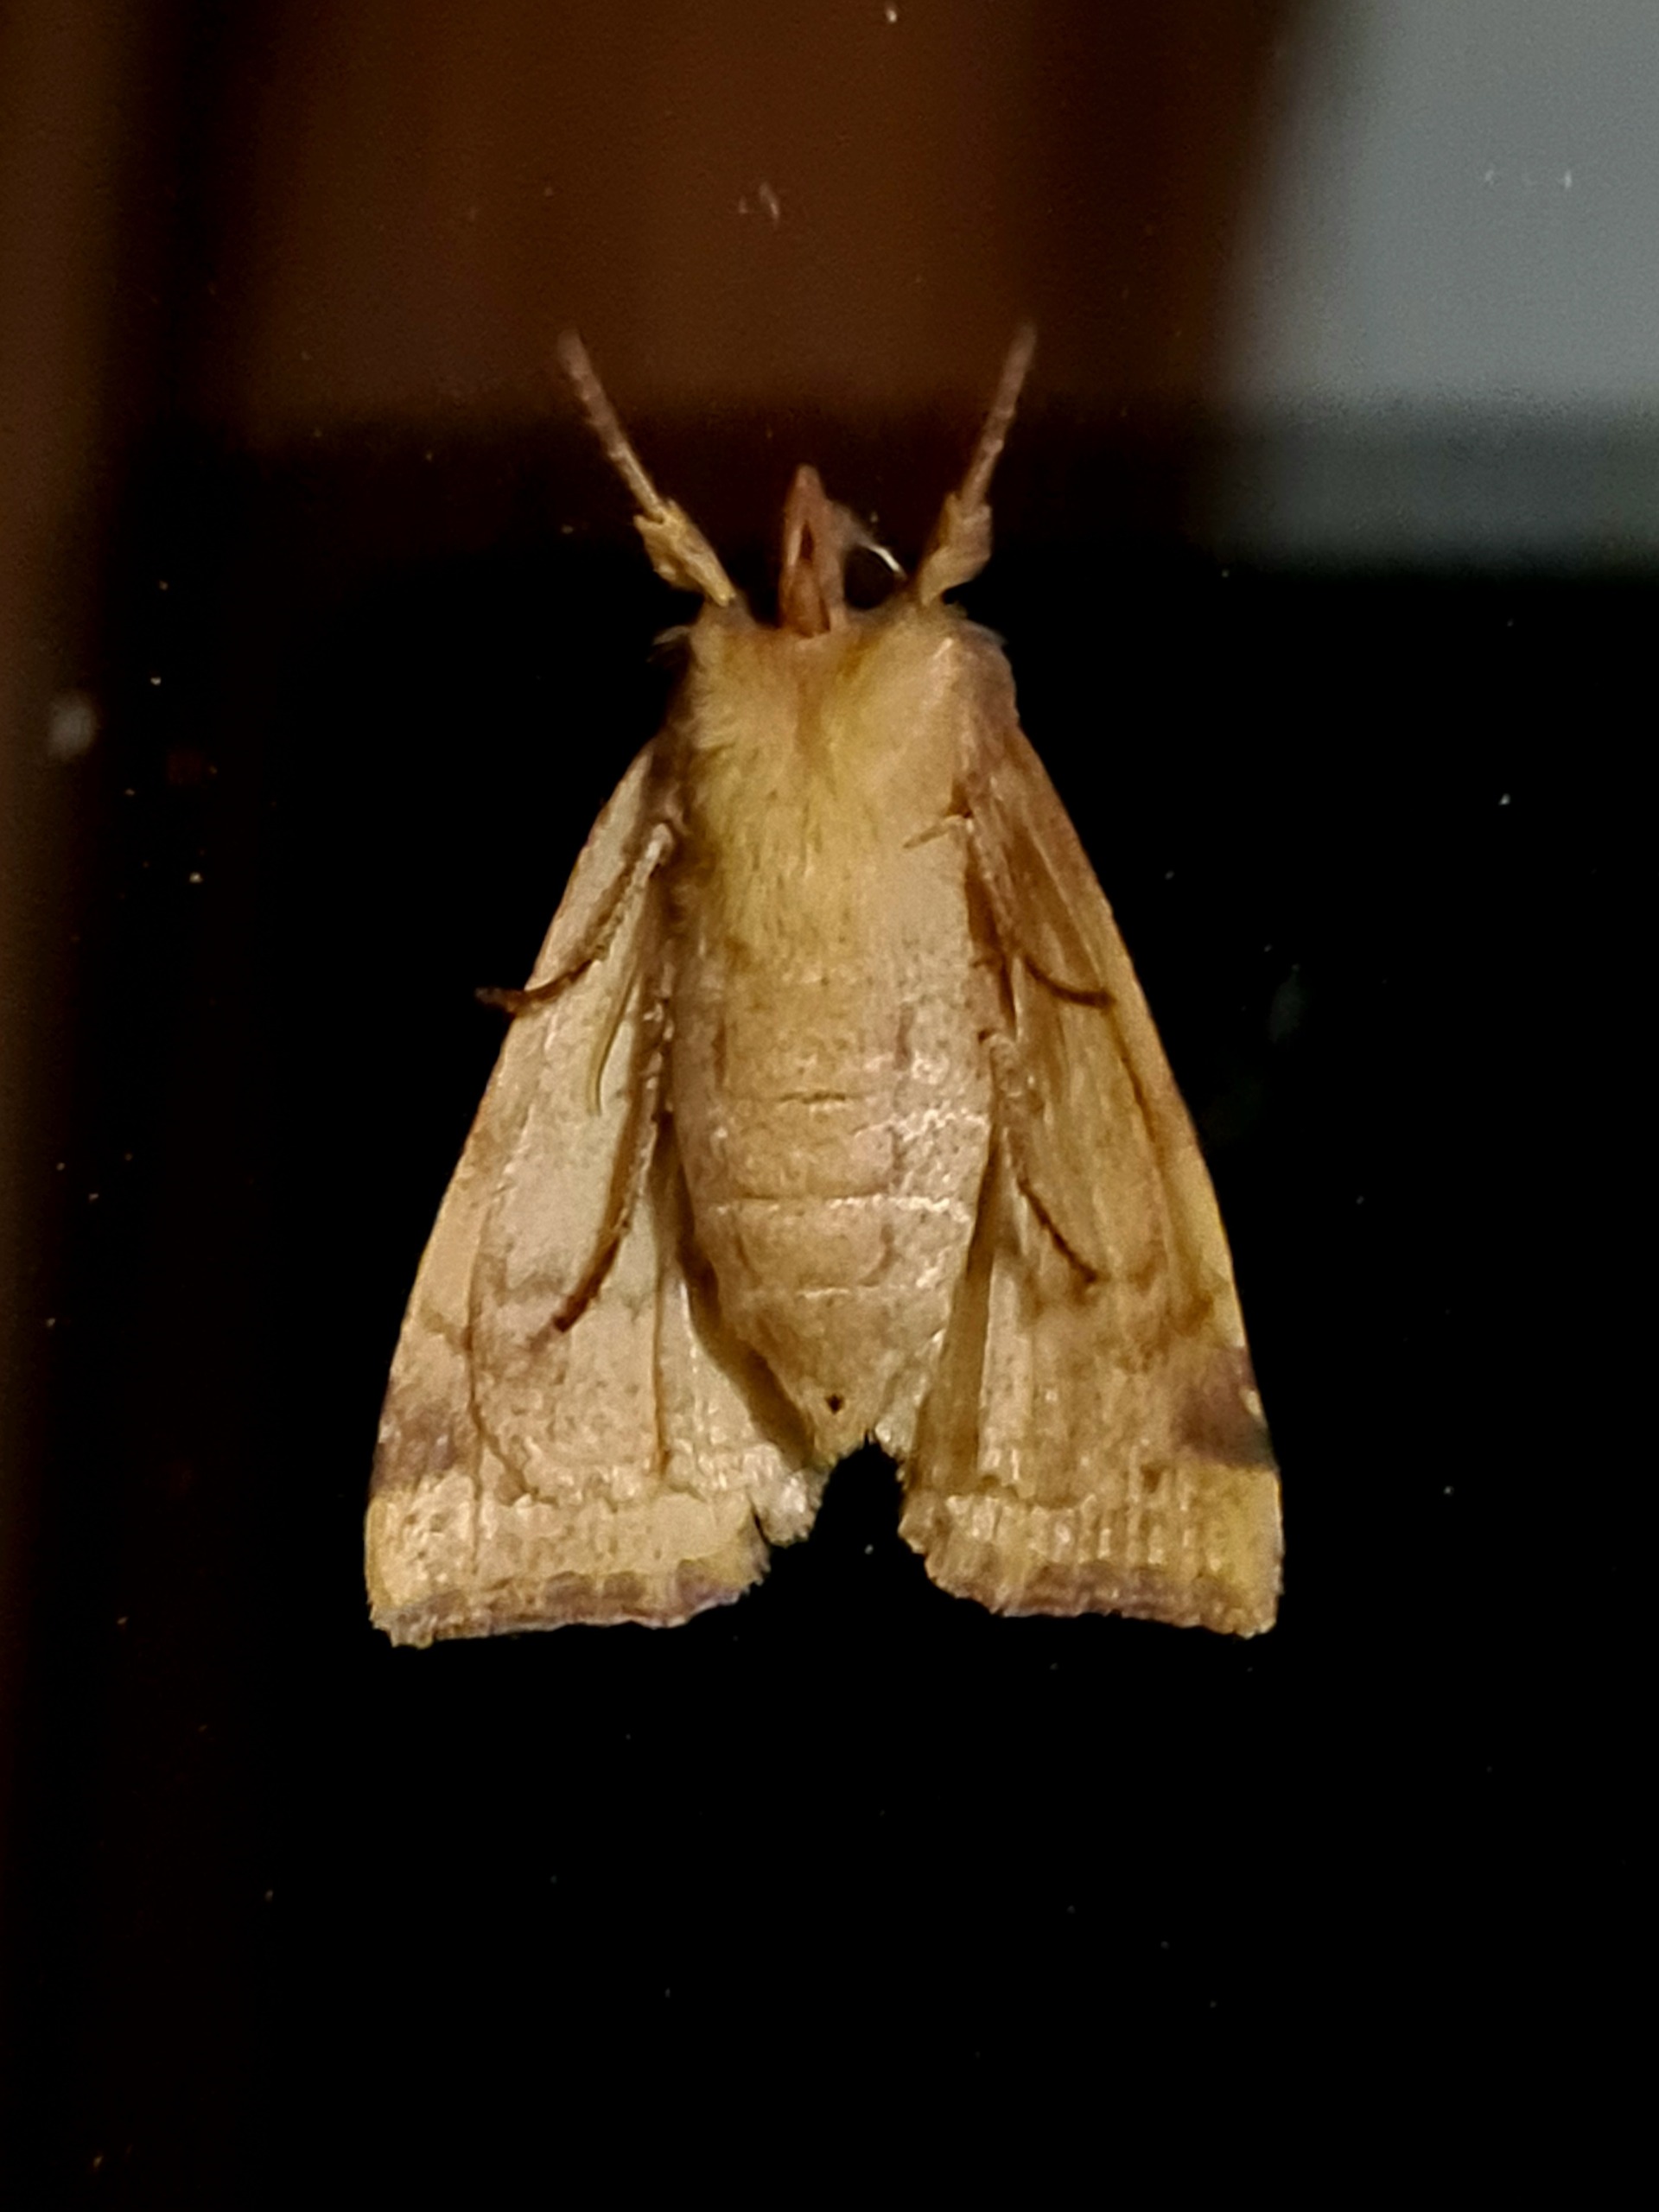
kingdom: Animalia
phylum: Arthropoda
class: Insecta
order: Lepidoptera
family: Noctuidae
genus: Xanthia
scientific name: Xanthia togata
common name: Toga-septemberugle
